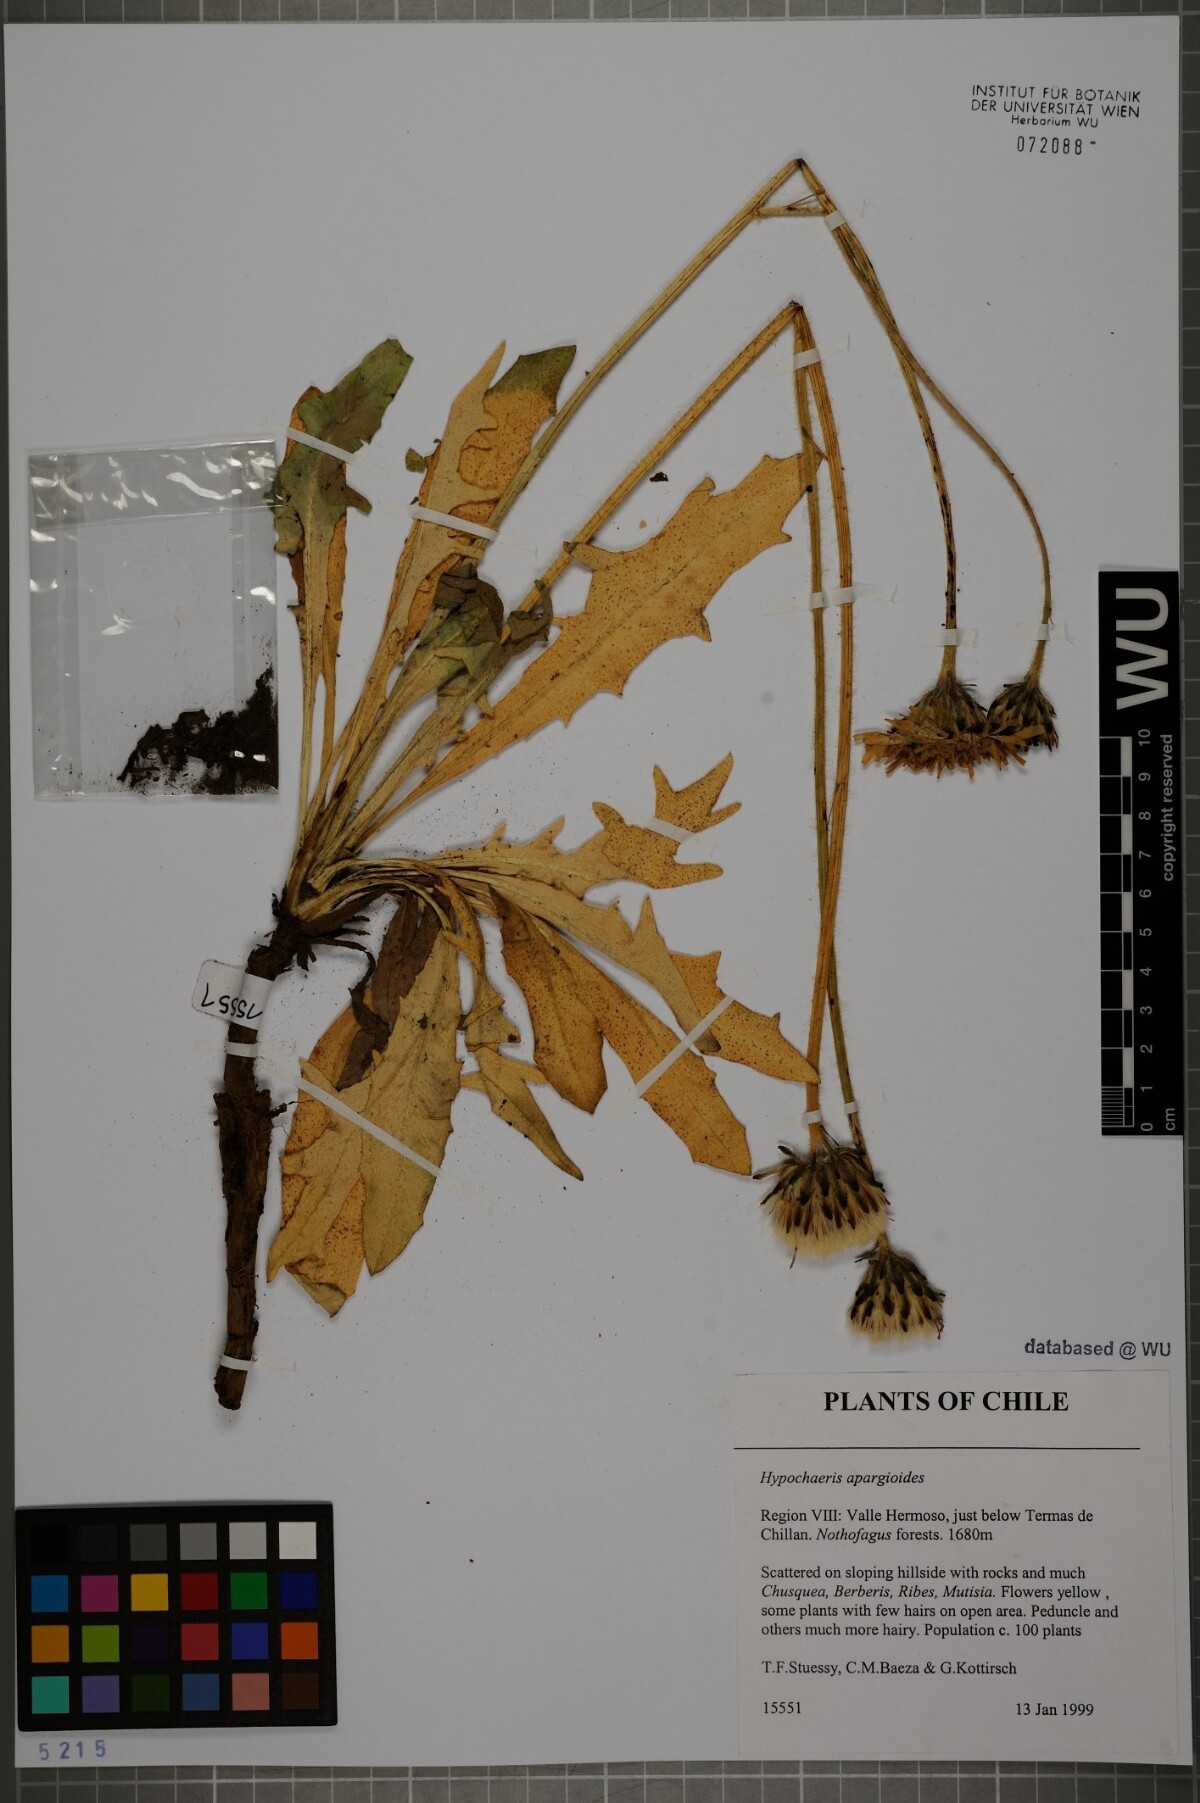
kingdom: Plantae
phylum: Tracheophyta
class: Magnoliopsida
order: Asterales
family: Asteraceae
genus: Hypochaeris
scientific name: Hypochaeris apargioides
